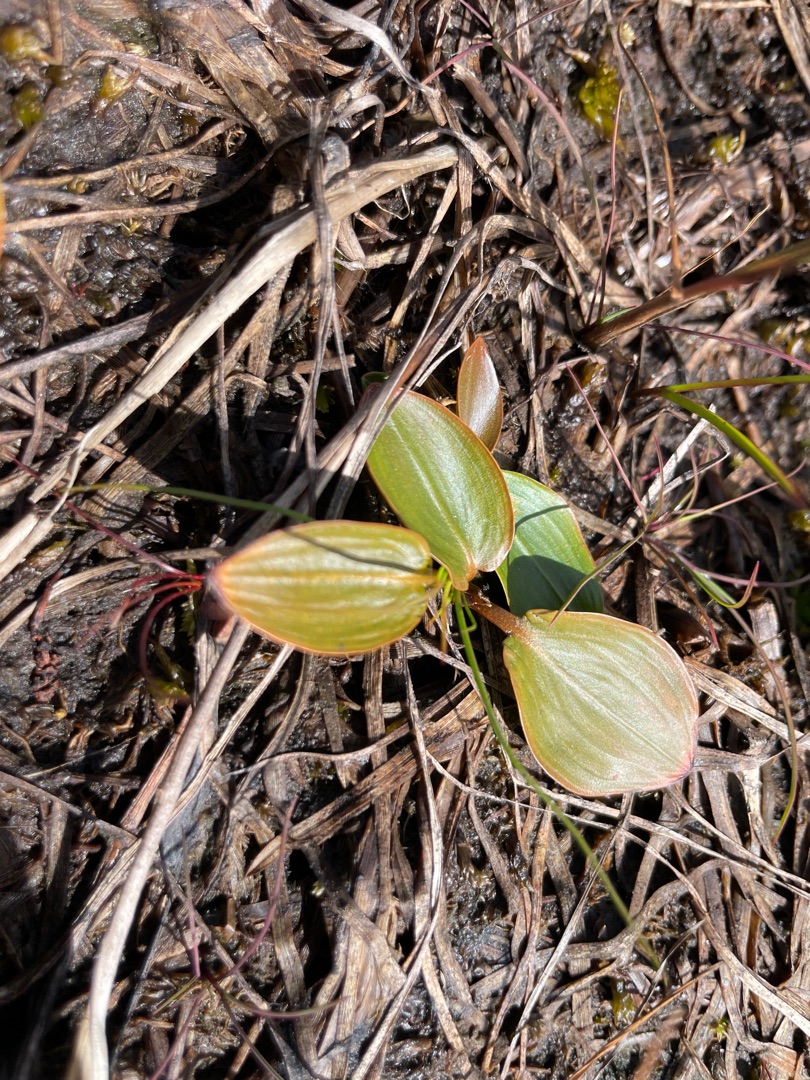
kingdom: Plantae
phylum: Tracheophyta
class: Liliopsida
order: Alismatales
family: Potamogetonaceae
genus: Potamogeton
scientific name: Potamogeton
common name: Vandaks (Potamogeton-slægten)
